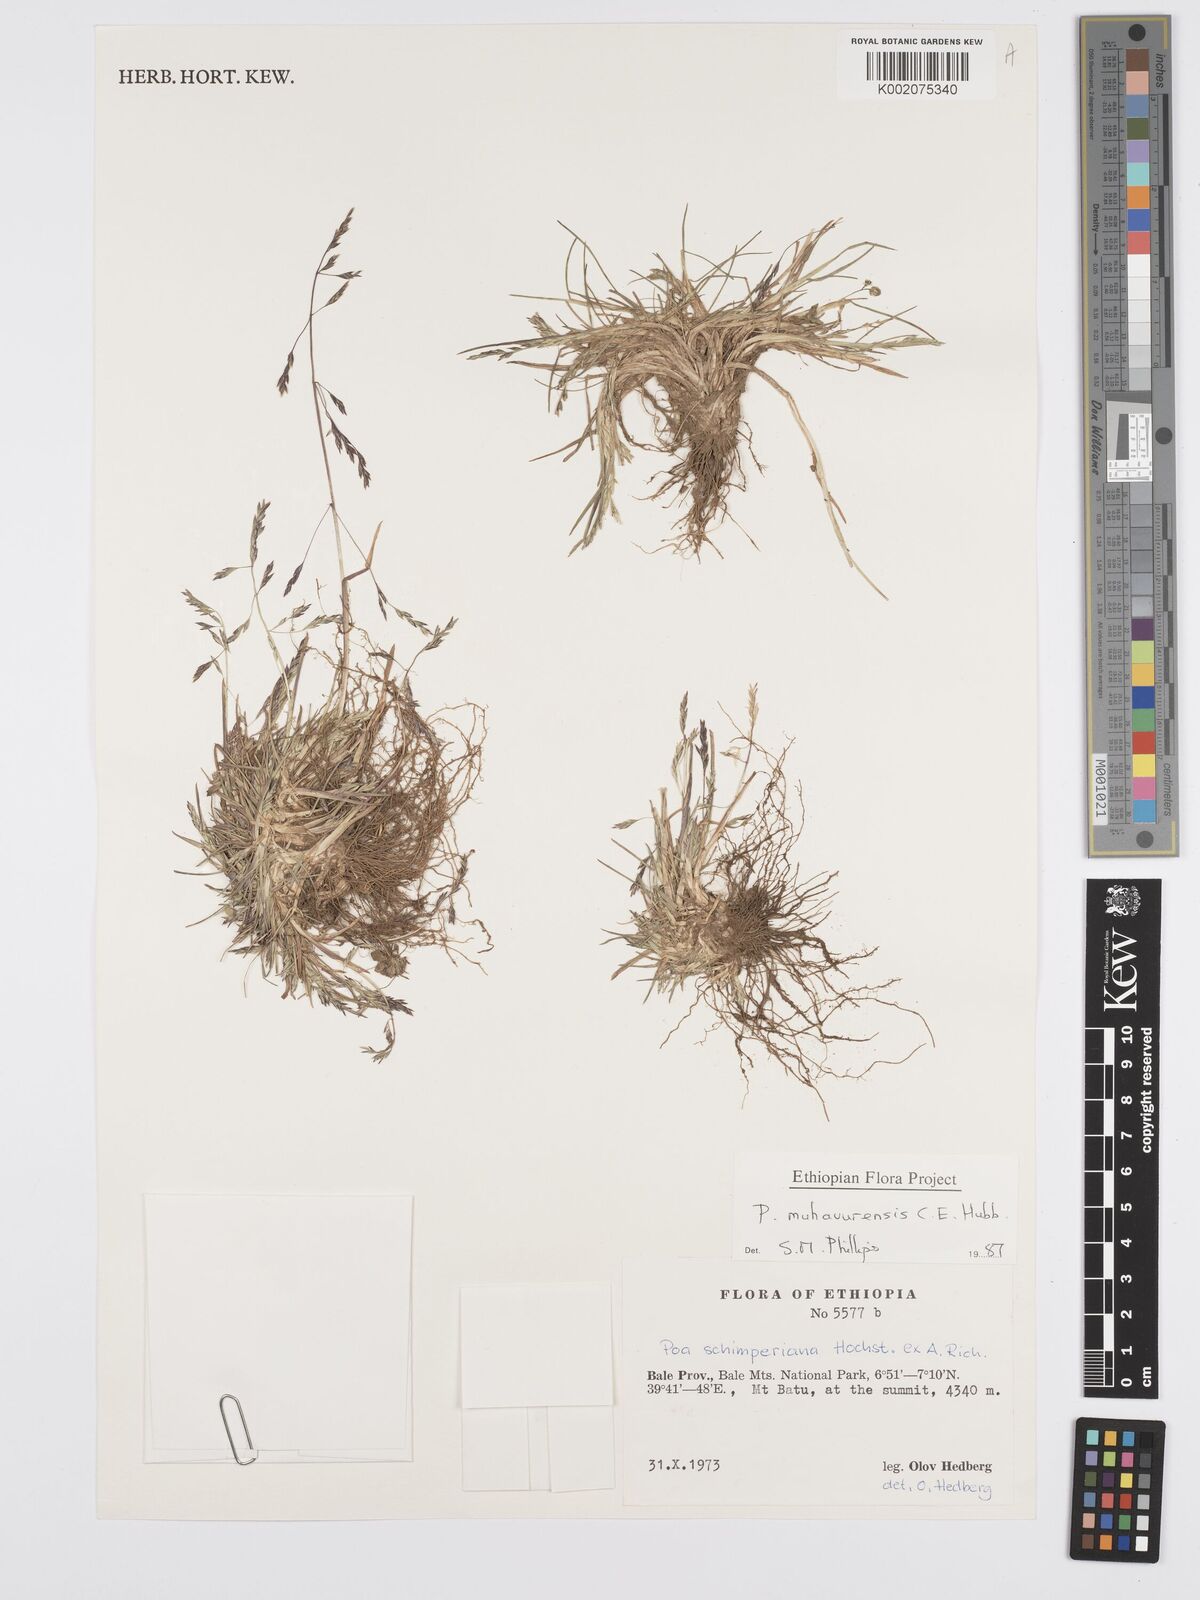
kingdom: Plantae
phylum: Tracheophyta
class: Liliopsida
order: Poales
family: Poaceae
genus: Poa
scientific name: Poa schimperiana
